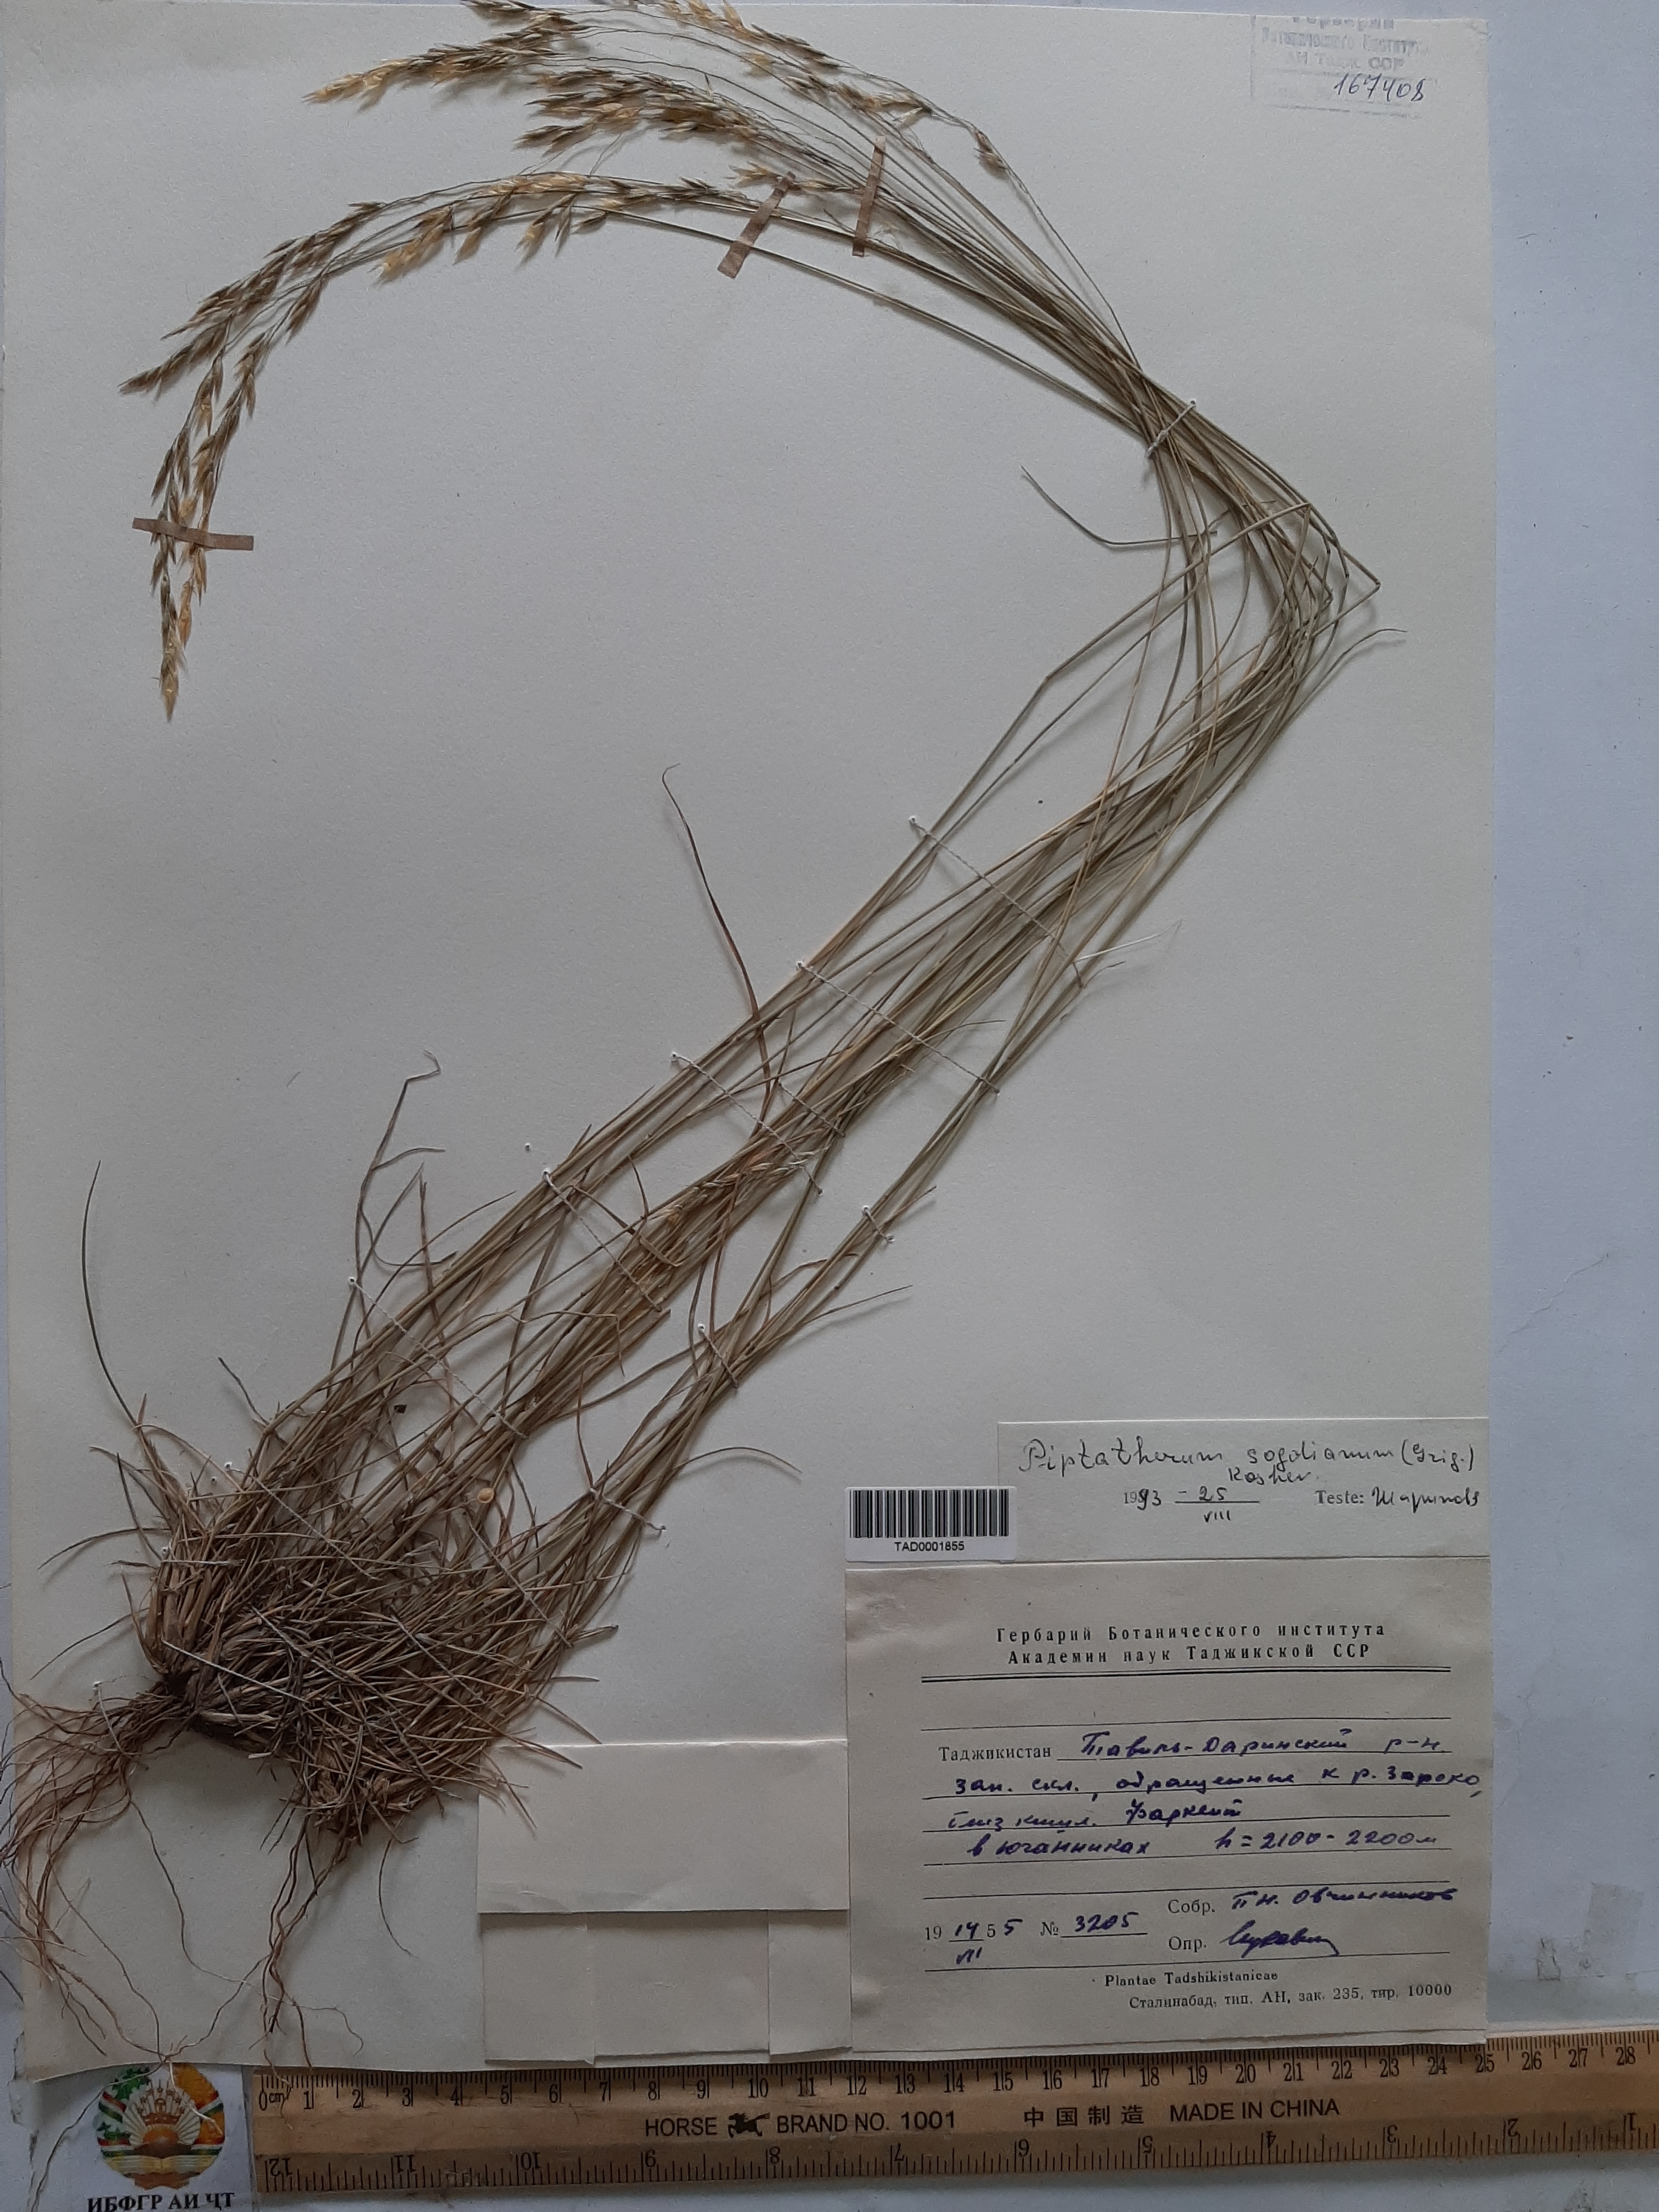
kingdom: Plantae
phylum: Tracheophyta
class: Liliopsida
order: Poales
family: Poaceae
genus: Piptatherum
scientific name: Piptatherum sogdianum
